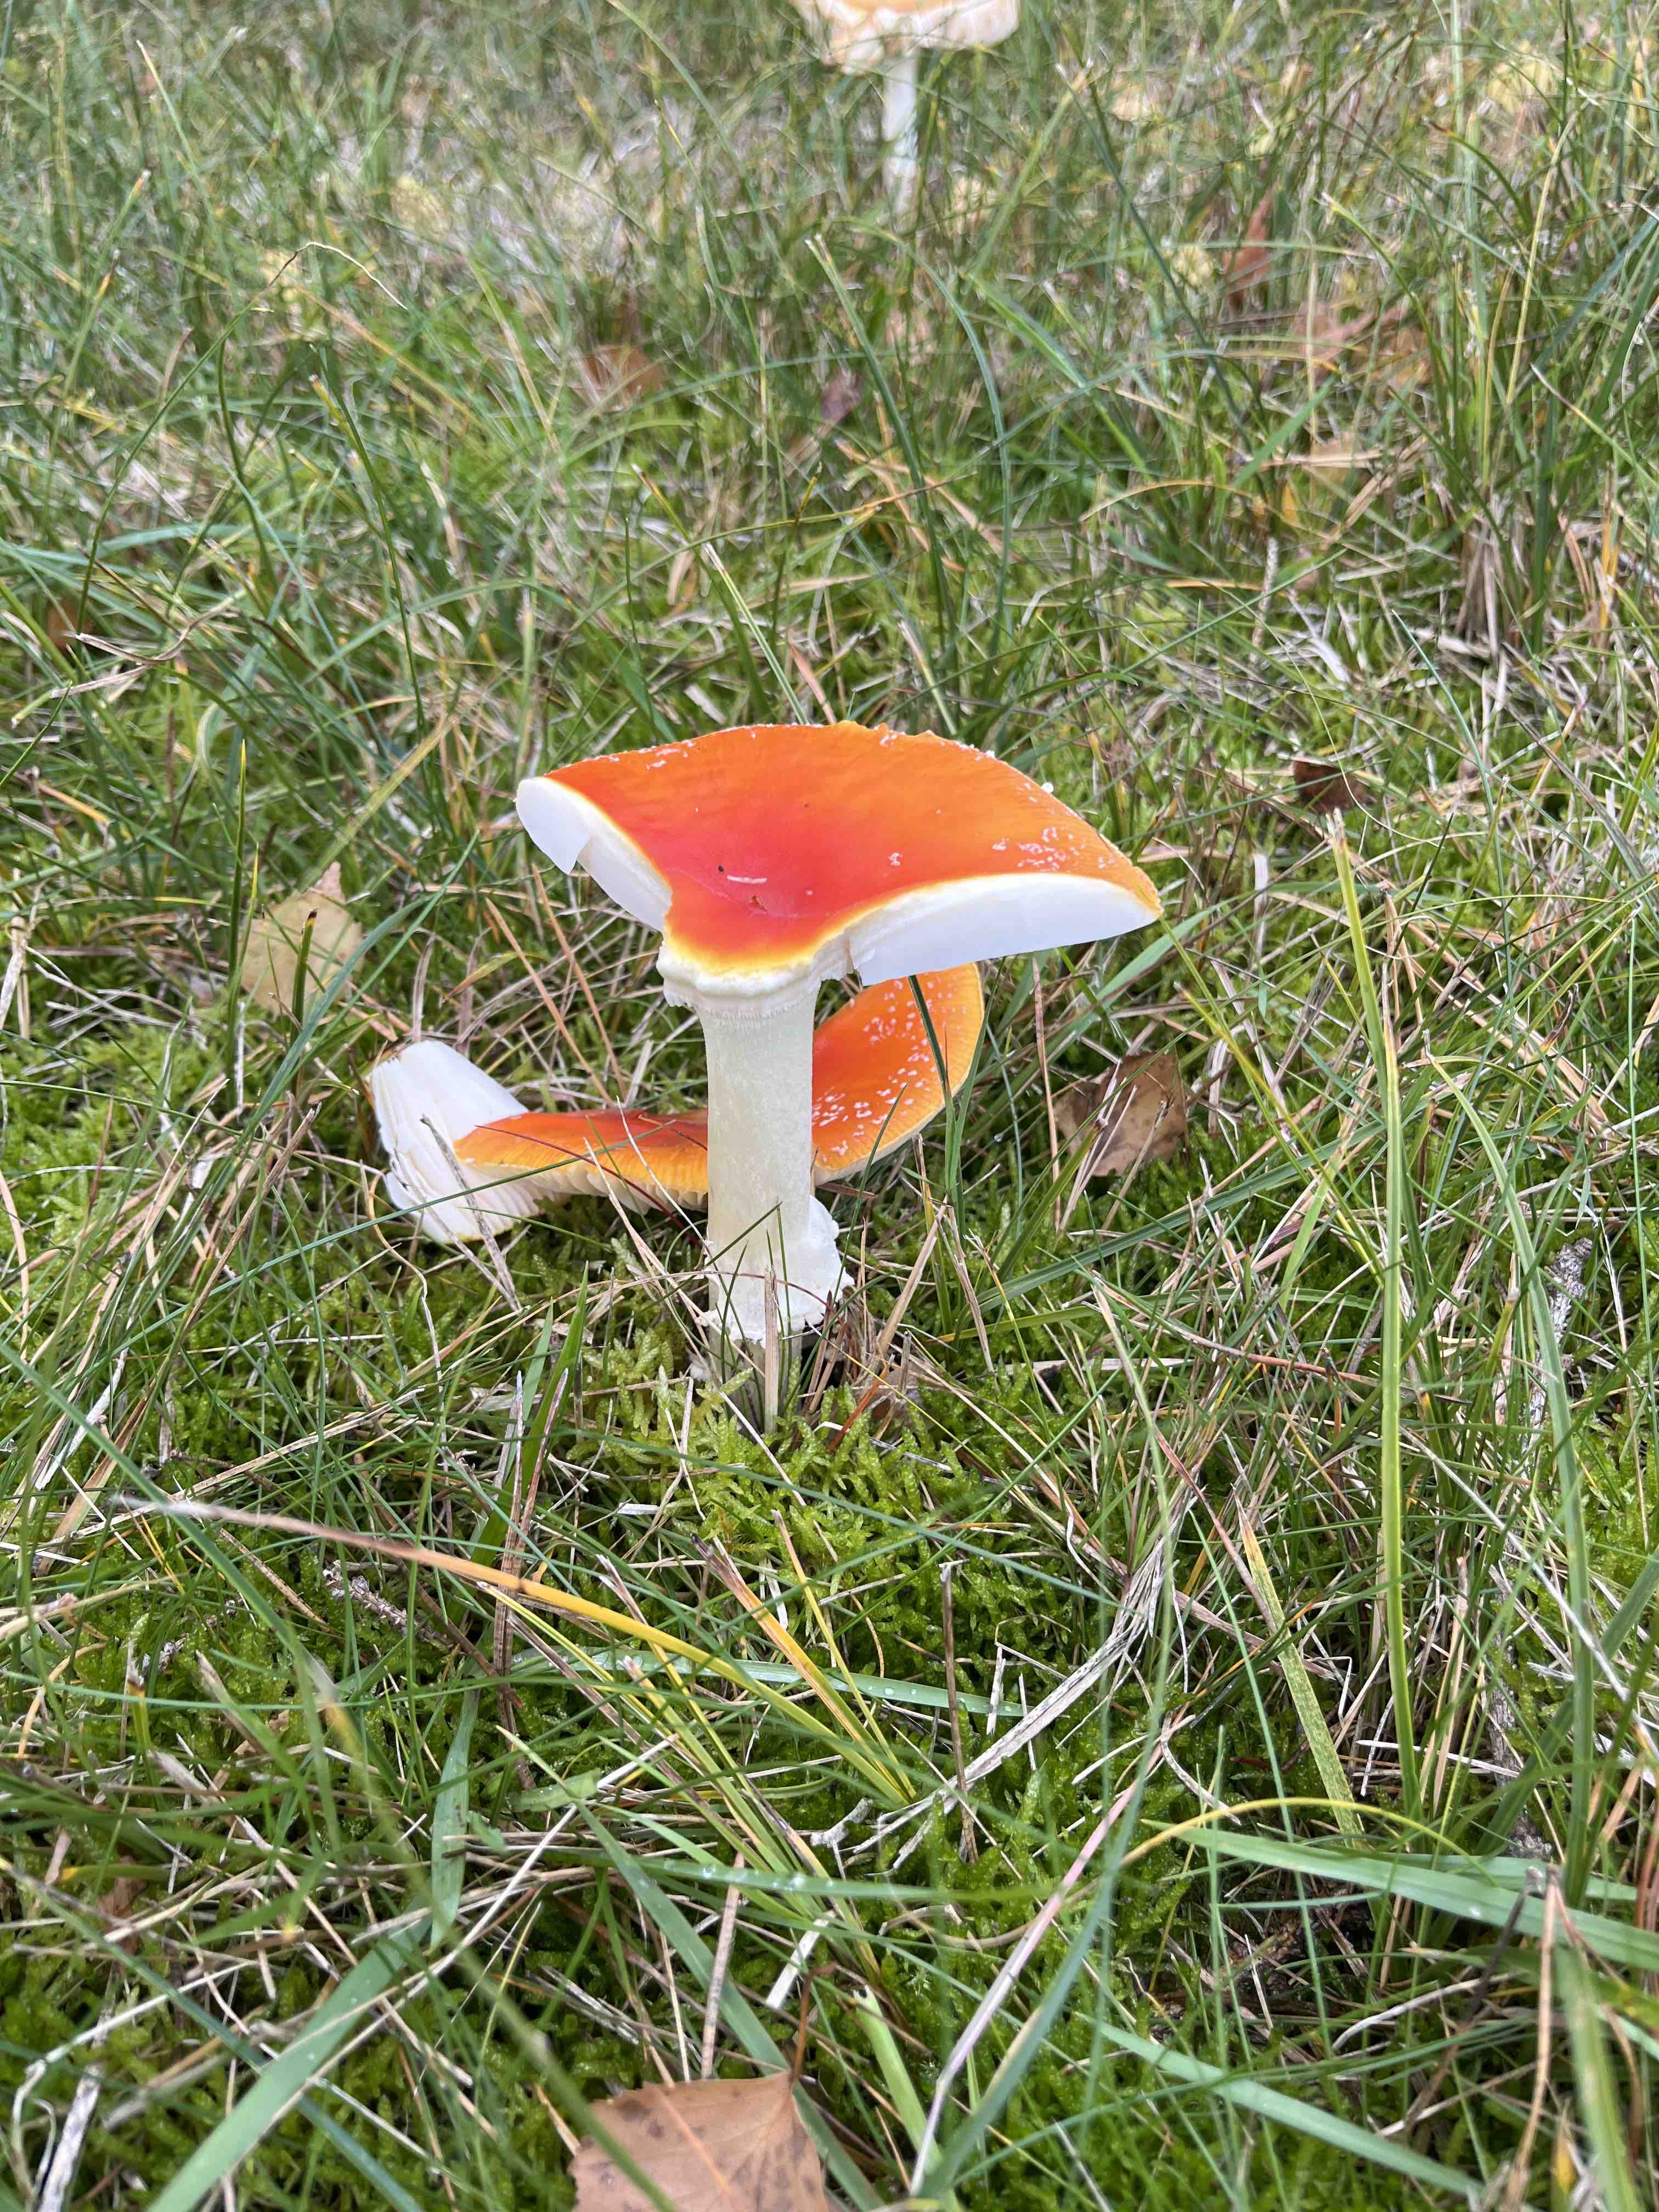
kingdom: Fungi
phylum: Basidiomycota
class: Agaricomycetes
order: Agaricales
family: Amanitaceae
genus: Amanita
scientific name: Amanita muscaria
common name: rød fluesvamp
